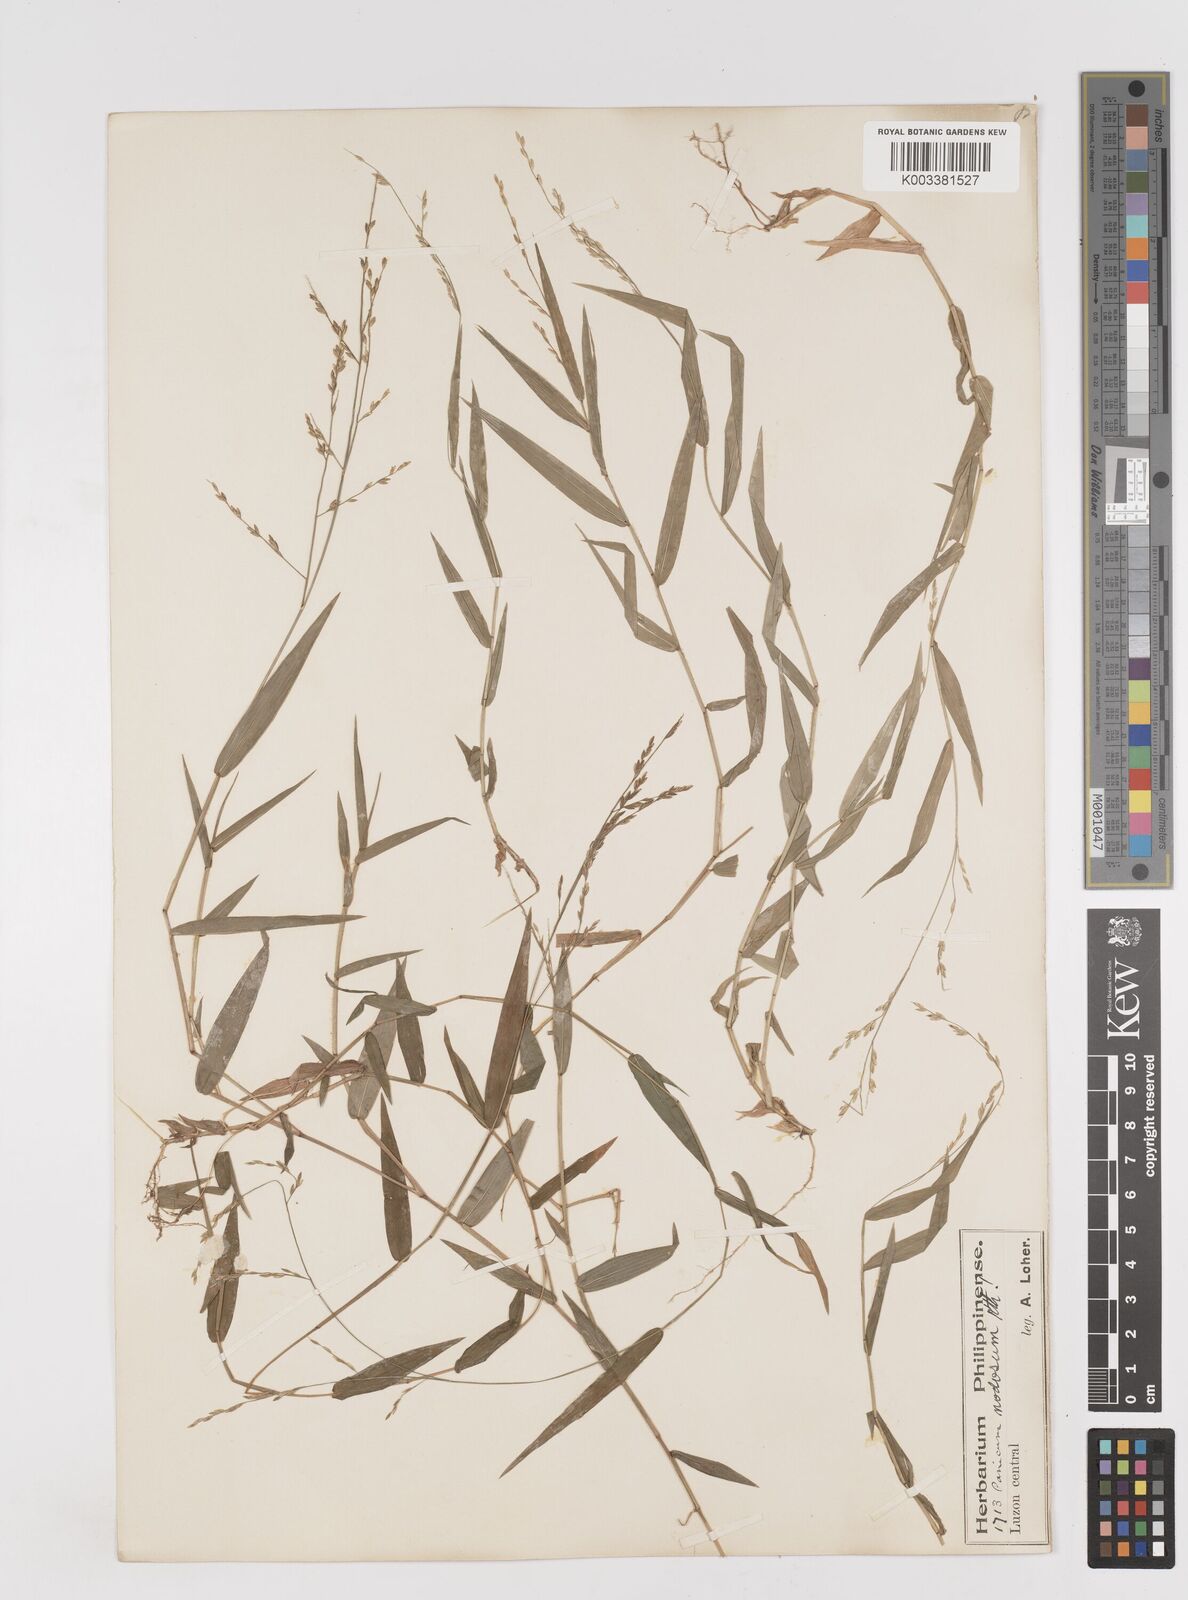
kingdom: Plantae
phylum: Tracheophyta
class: Liliopsida
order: Poales
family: Poaceae
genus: Ottochloa
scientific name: Ottochloa nodosa
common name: Slender-panic grass
